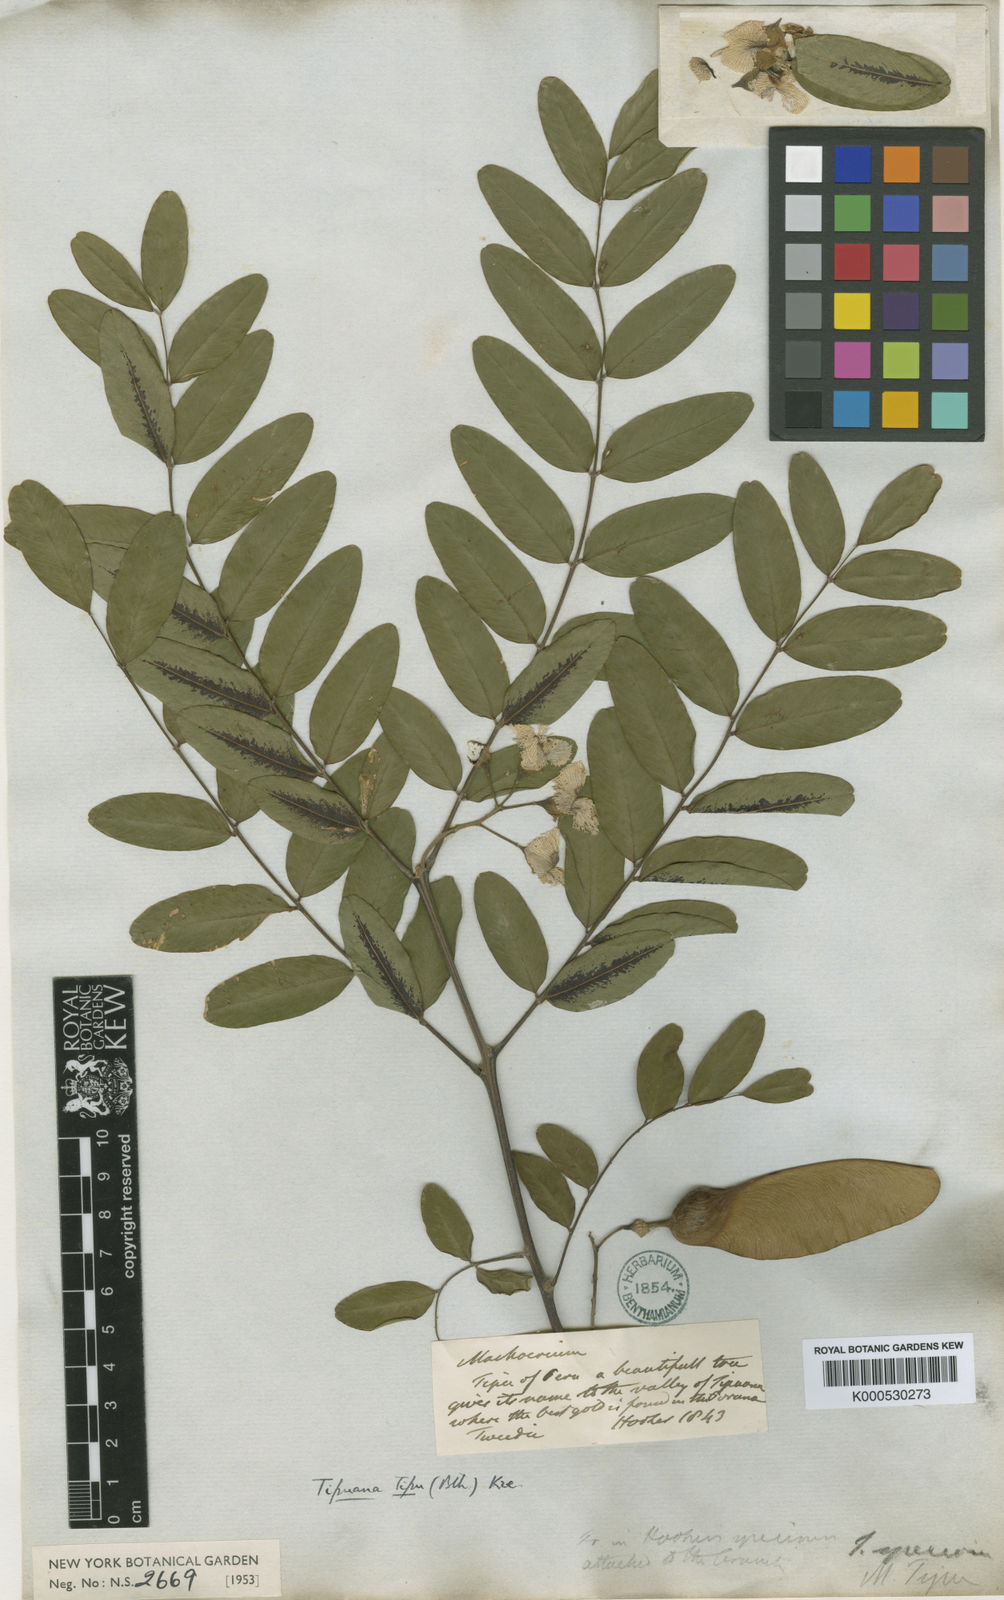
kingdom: Plantae
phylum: Tracheophyta
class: Magnoliopsida
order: Fabales
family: Fabaceae
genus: Tipuana
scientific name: Tipuana tipu
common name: Tiputree
